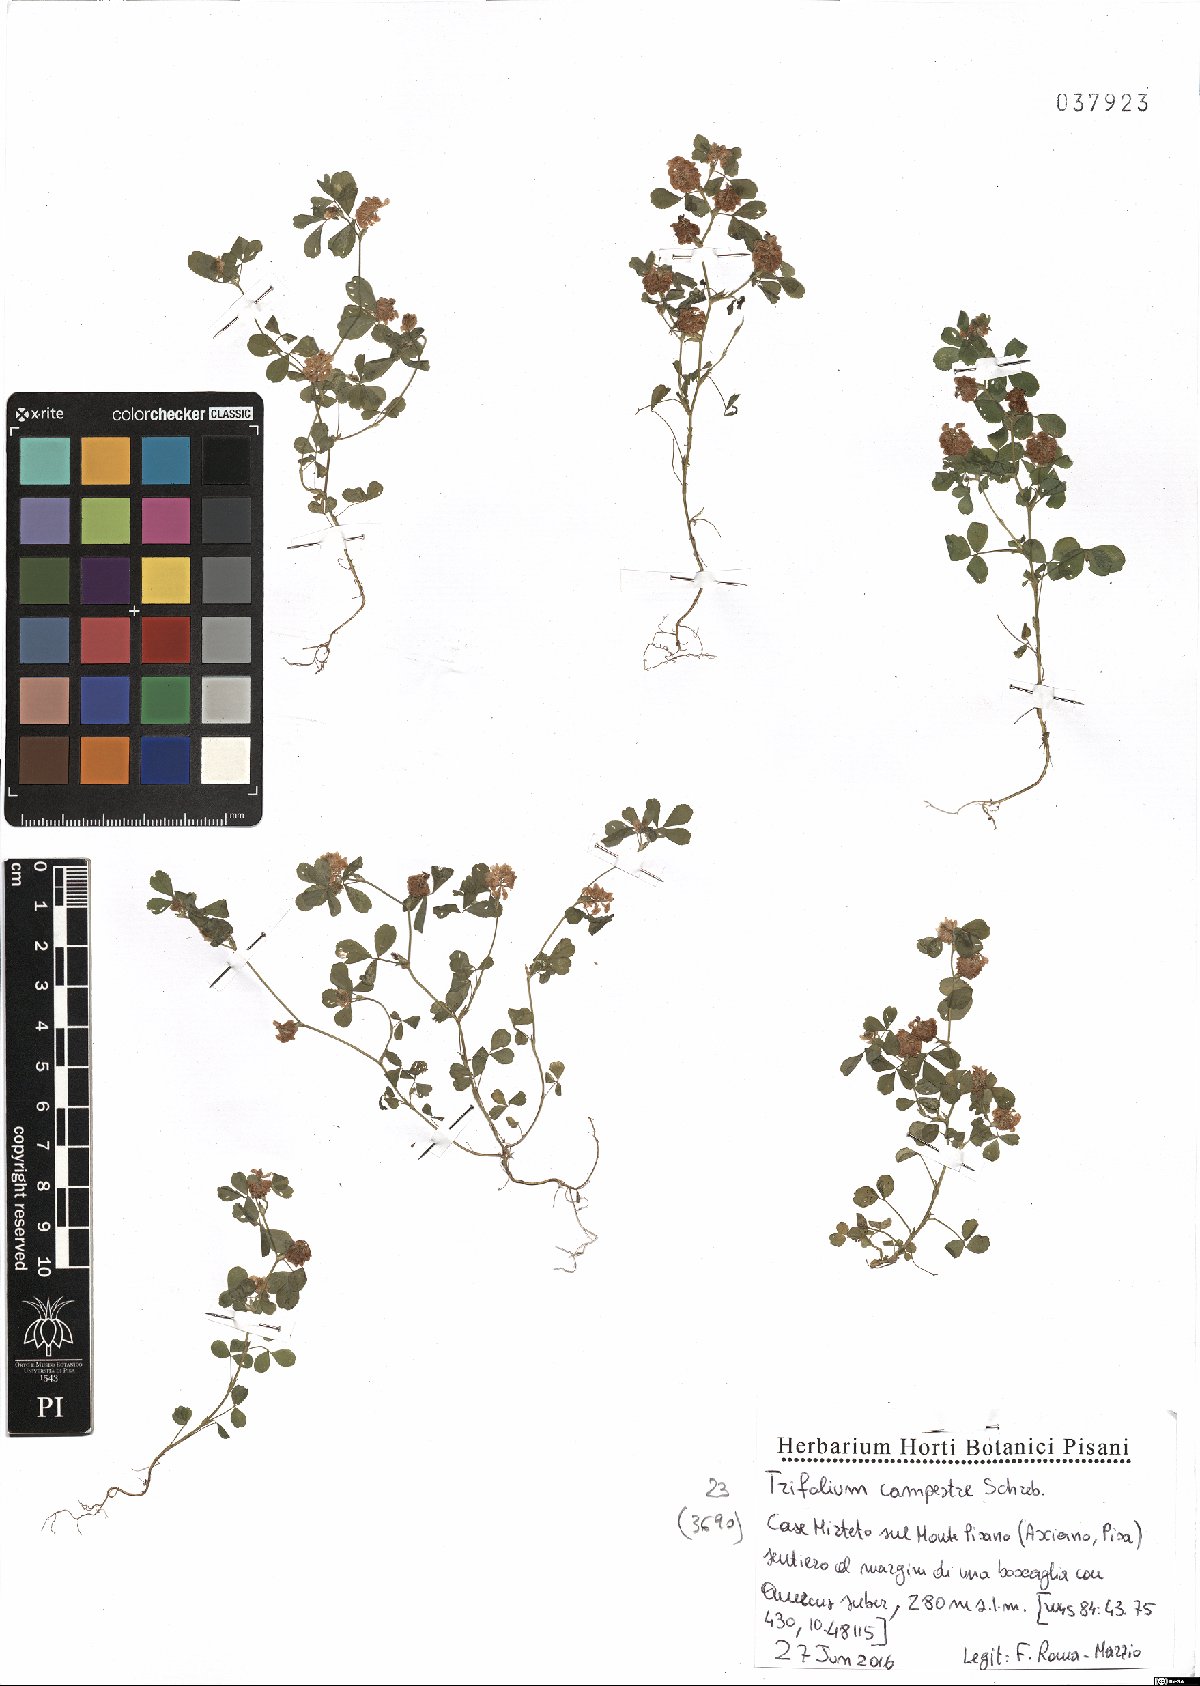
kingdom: Plantae
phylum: Tracheophyta
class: Magnoliopsida
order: Fabales
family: Fabaceae
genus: Trifolium
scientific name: Trifolium campestre
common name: Field clover
